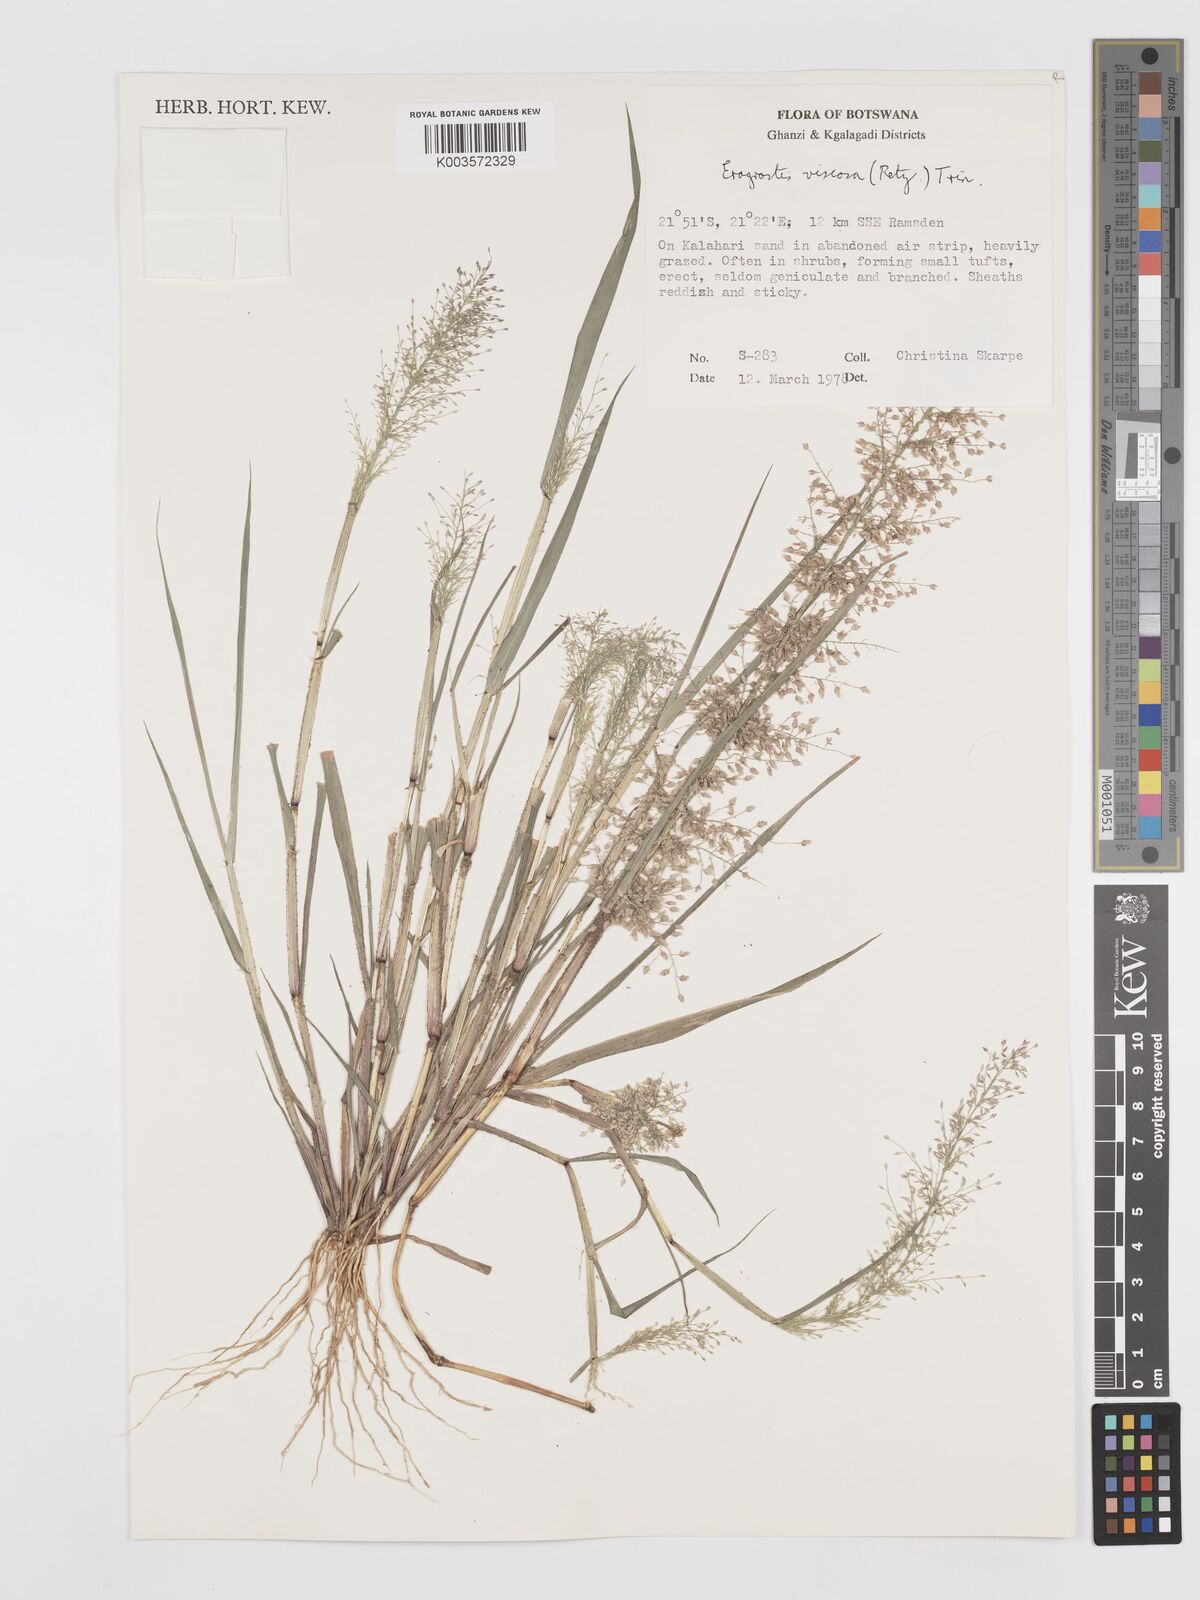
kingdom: Plantae
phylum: Tracheophyta
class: Liliopsida
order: Poales
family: Poaceae
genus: Eragrostis
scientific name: Eragrostis
